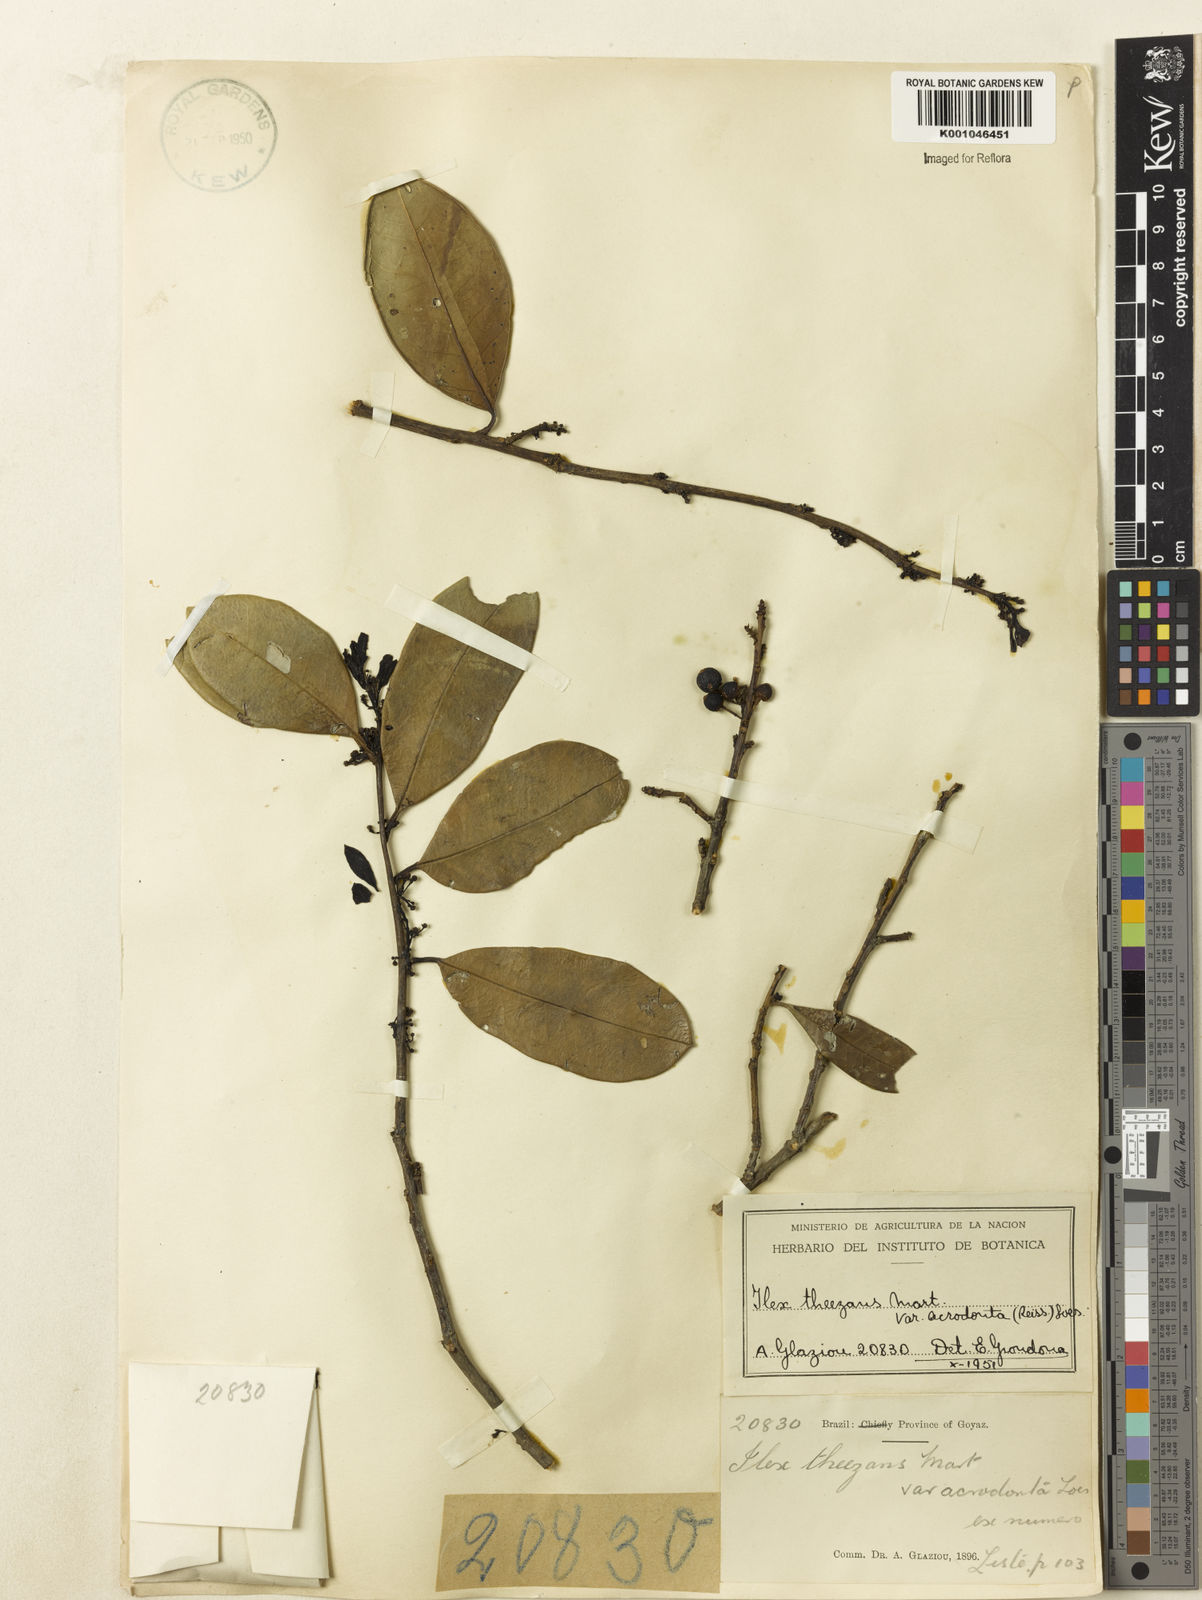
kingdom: Plantae
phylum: Tracheophyta
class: Magnoliopsida
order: Aquifoliales
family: Aquifoliaceae
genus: Ilex
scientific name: Ilex paraguariensis
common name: Paraguay tea
